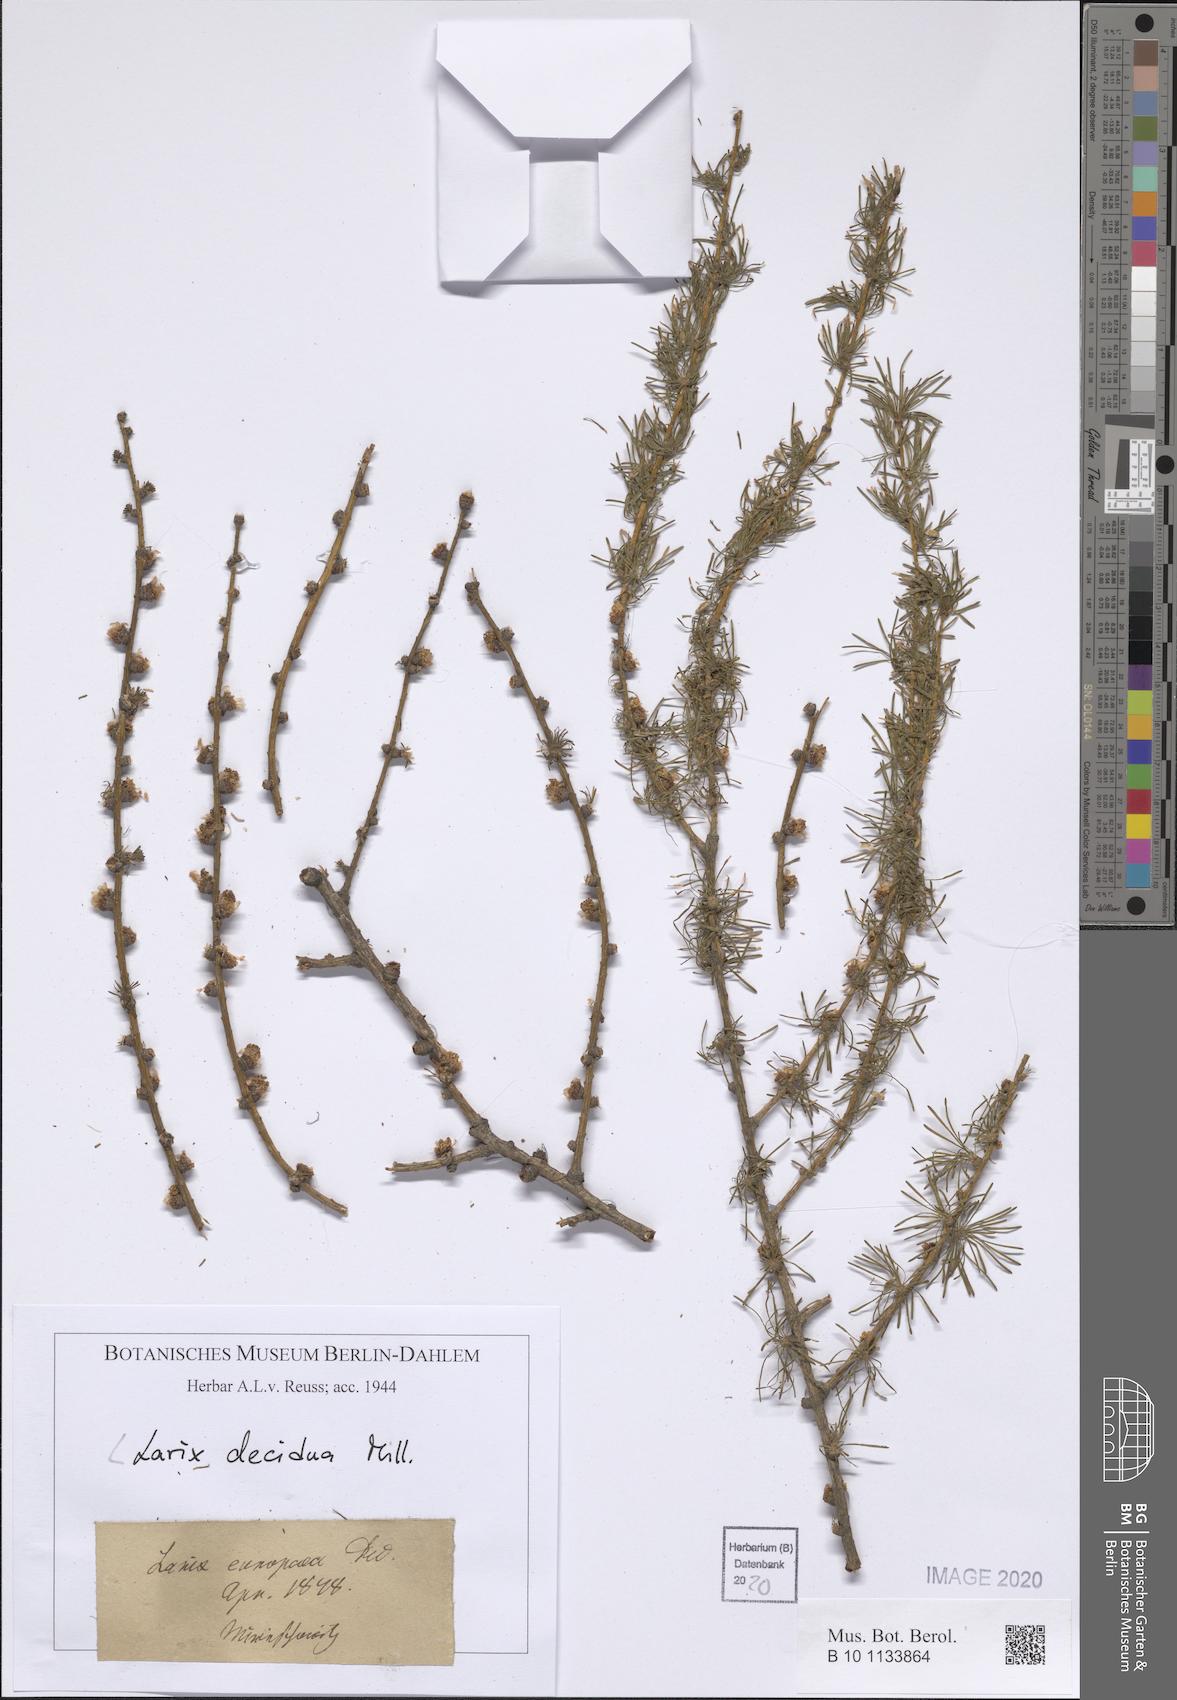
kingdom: Plantae
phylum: Tracheophyta
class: Pinopsida
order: Pinales
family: Pinaceae
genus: Larix
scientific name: Larix decidua
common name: European larch
